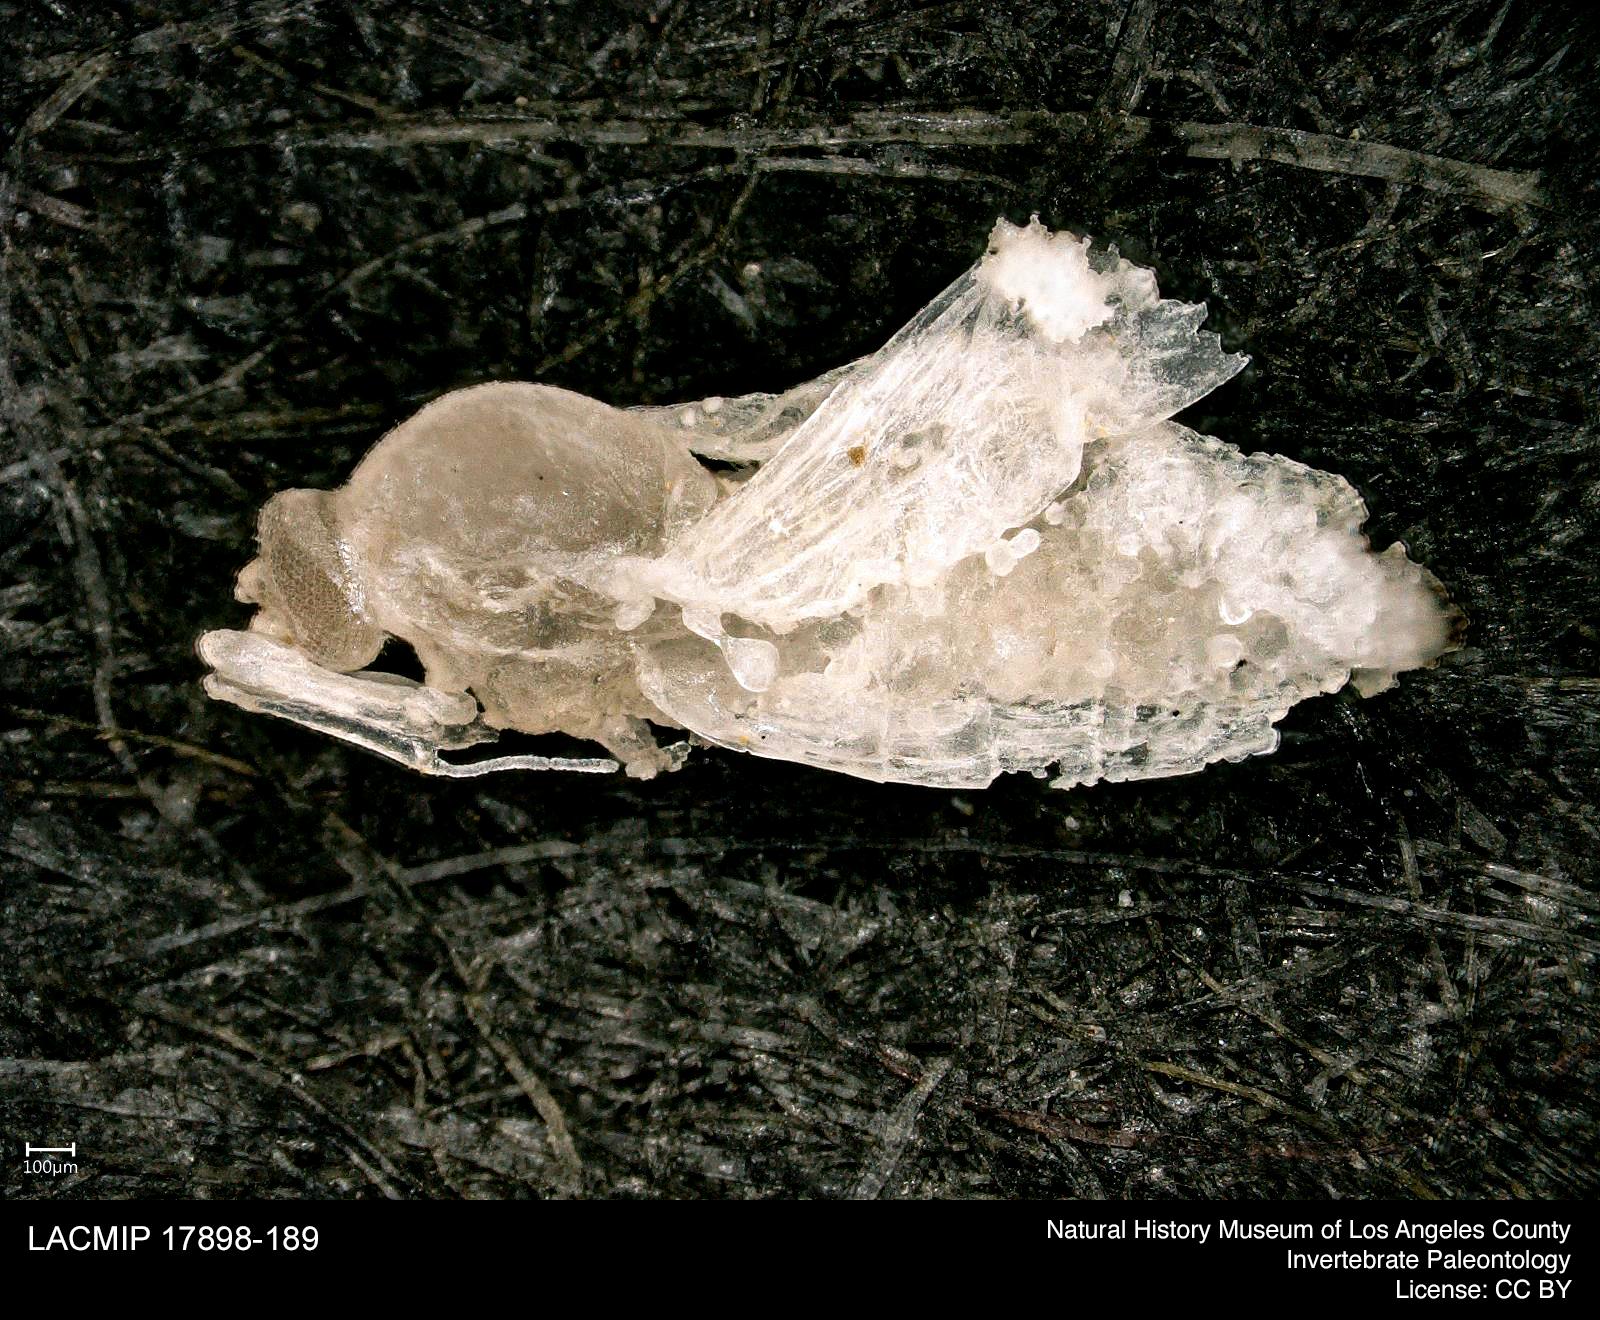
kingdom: Animalia
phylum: Arthropoda
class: Insecta
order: Diptera
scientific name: Diptera
